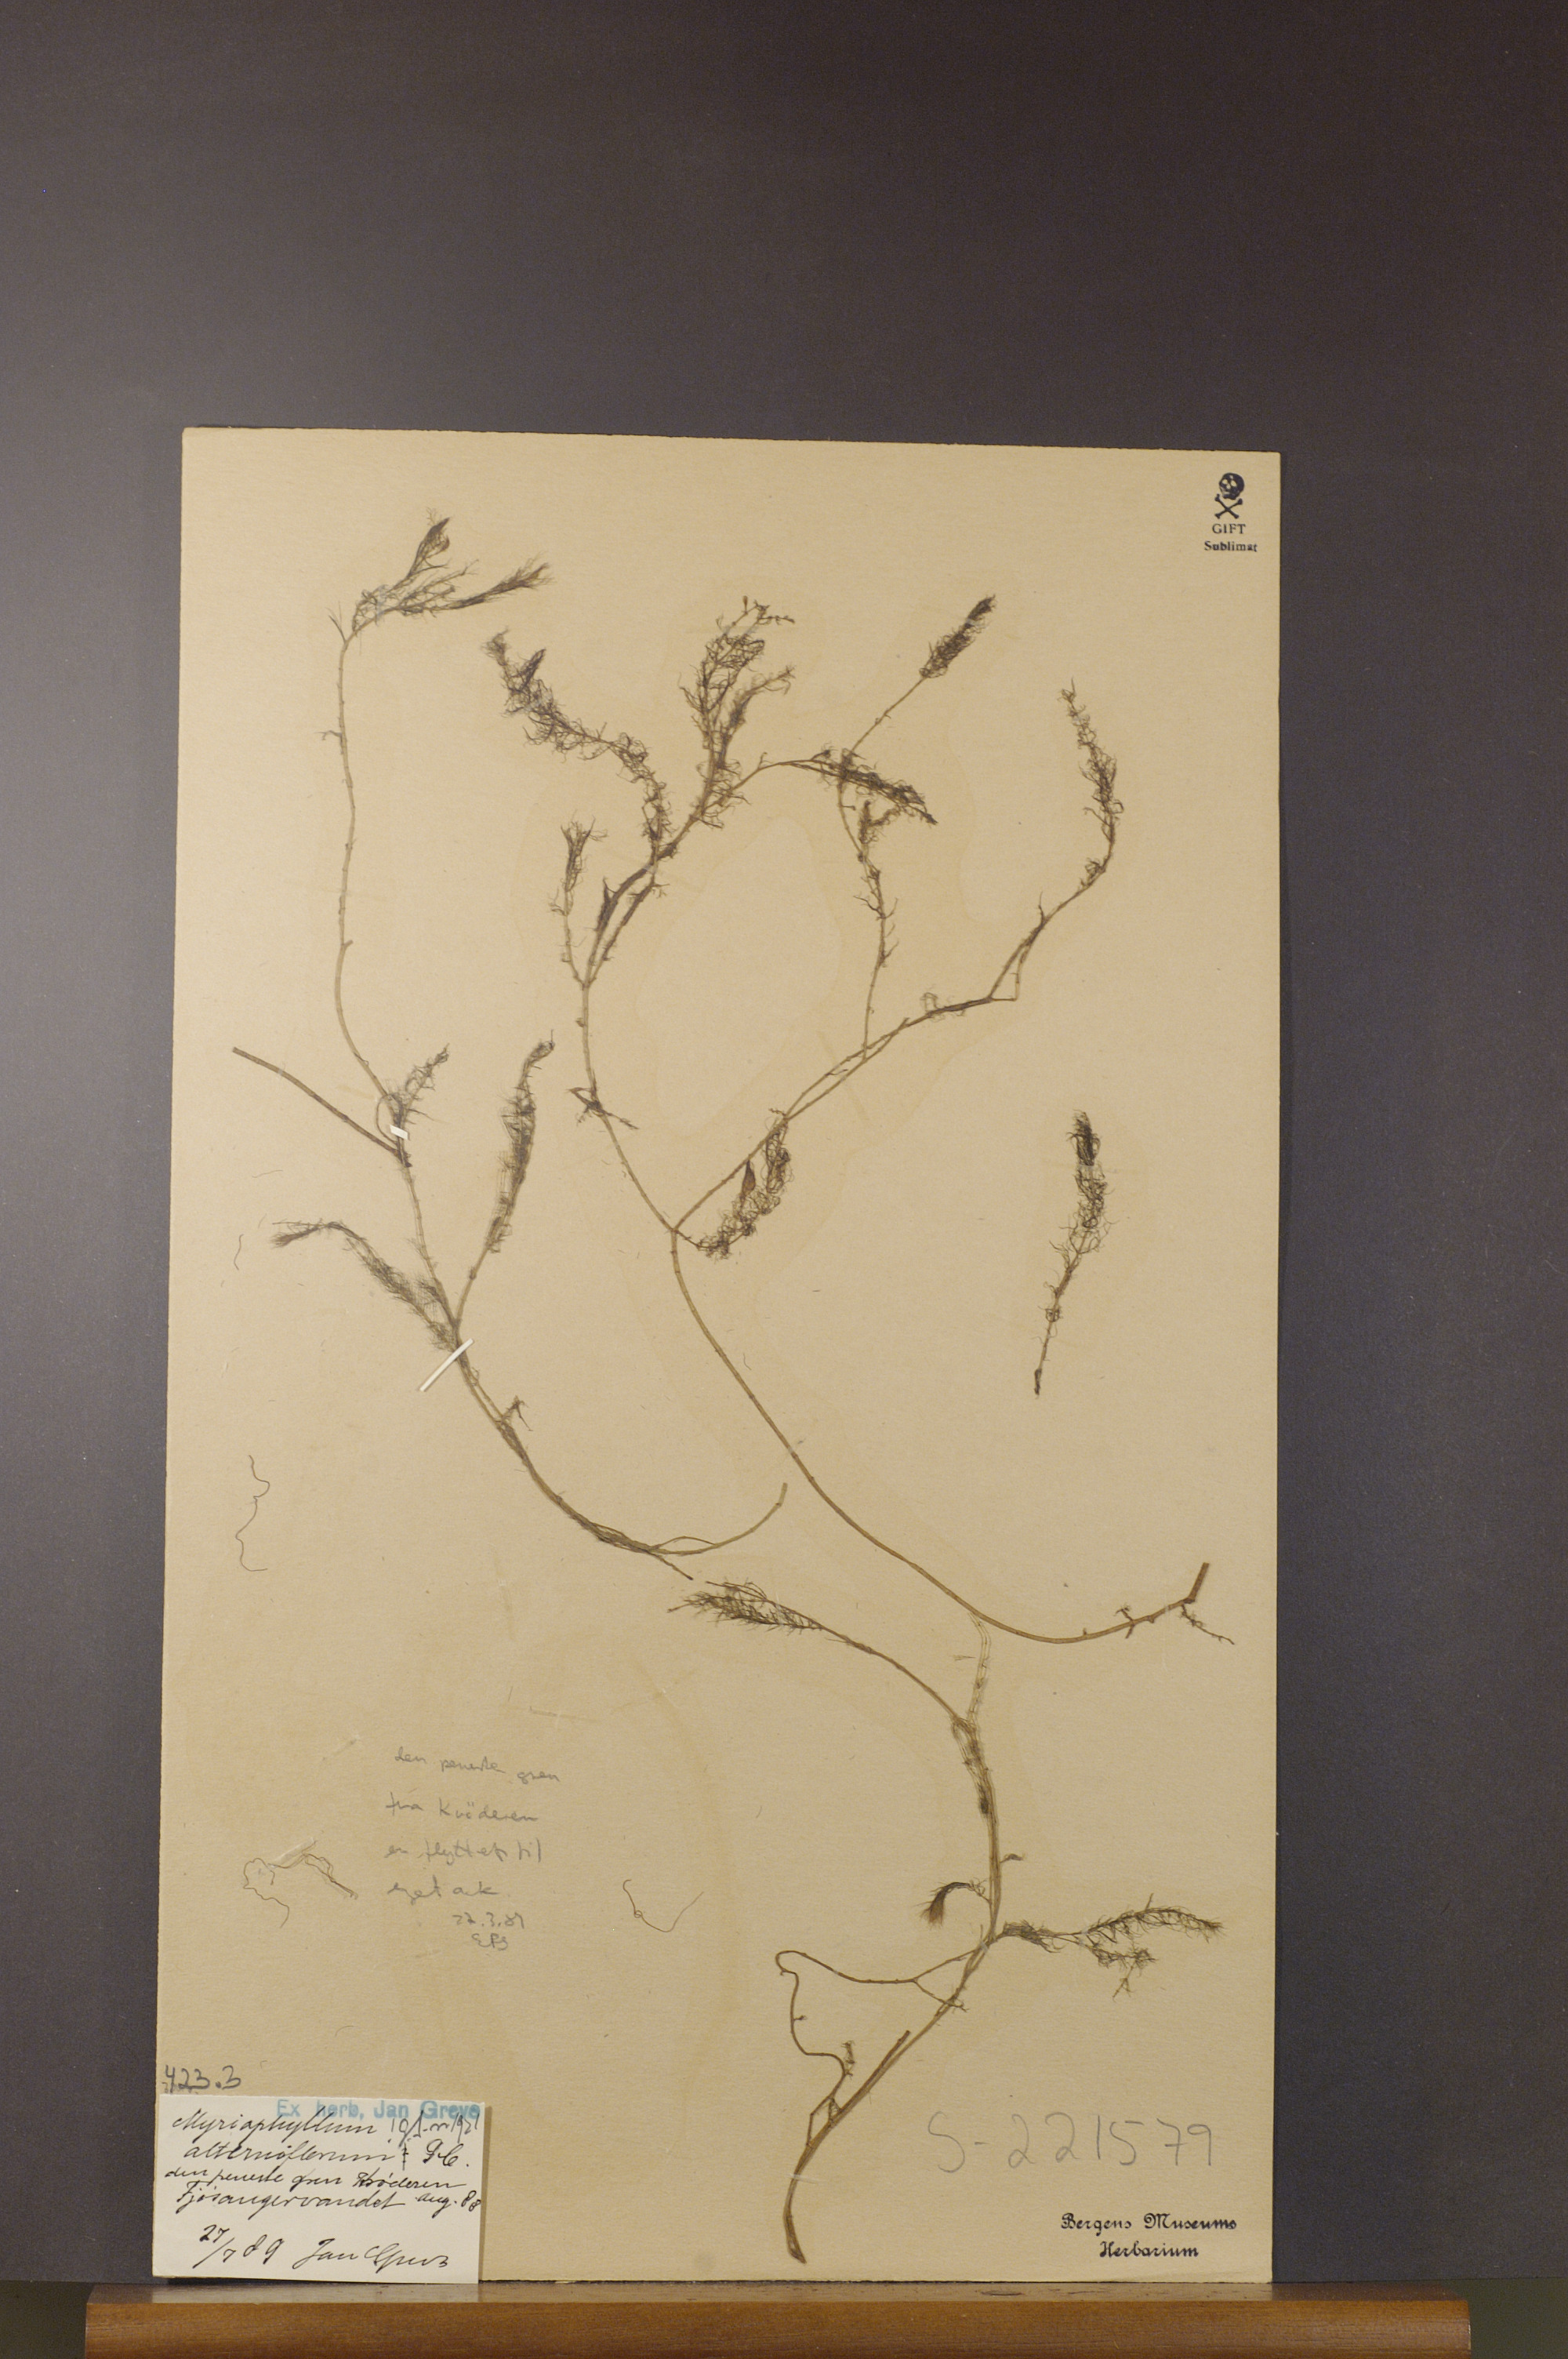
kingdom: Plantae
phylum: Tracheophyta
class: Magnoliopsida
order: Saxifragales
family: Haloragaceae
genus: Myriophyllum
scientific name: Myriophyllum alterniflorum
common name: Alternate water-milfoil
